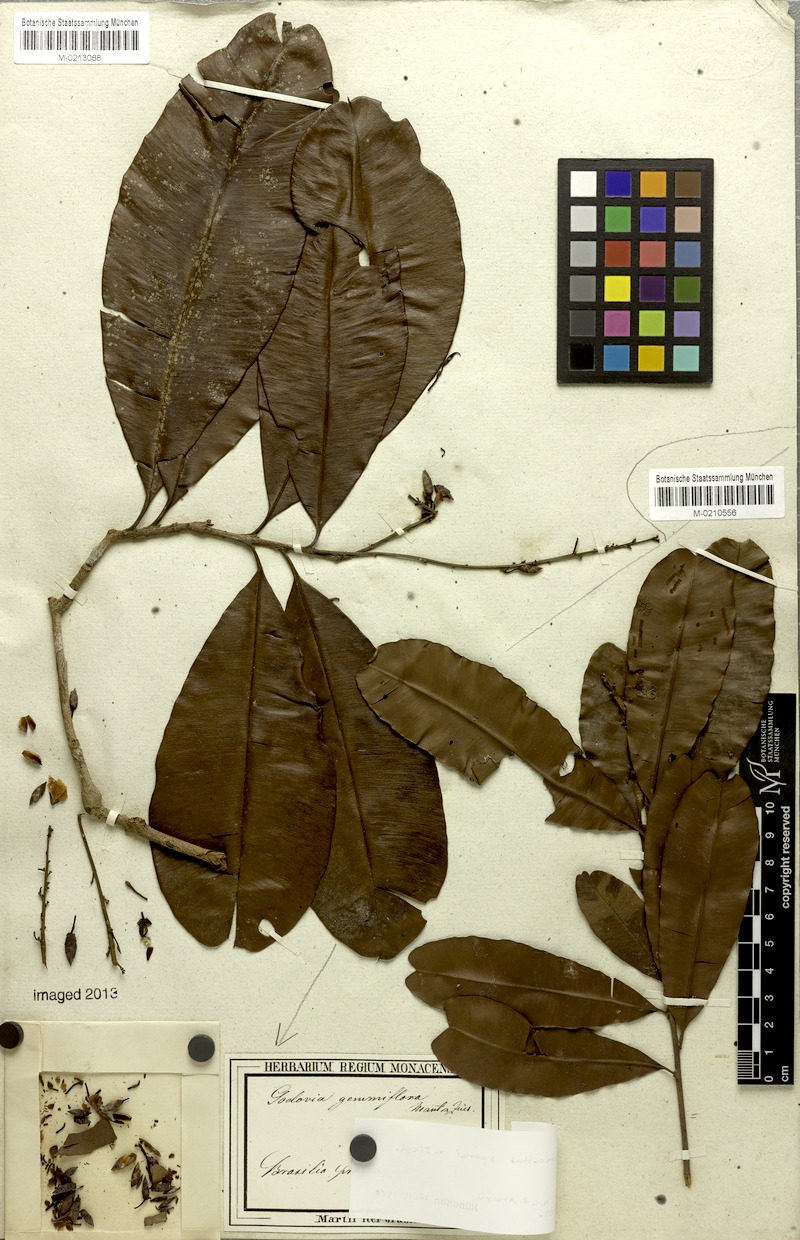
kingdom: Plantae
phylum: Tracheophyta
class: Magnoliopsida
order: Malpighiales
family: Ochnaceae
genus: Blastemanthus
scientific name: Blastemanthus gemmiflorus
